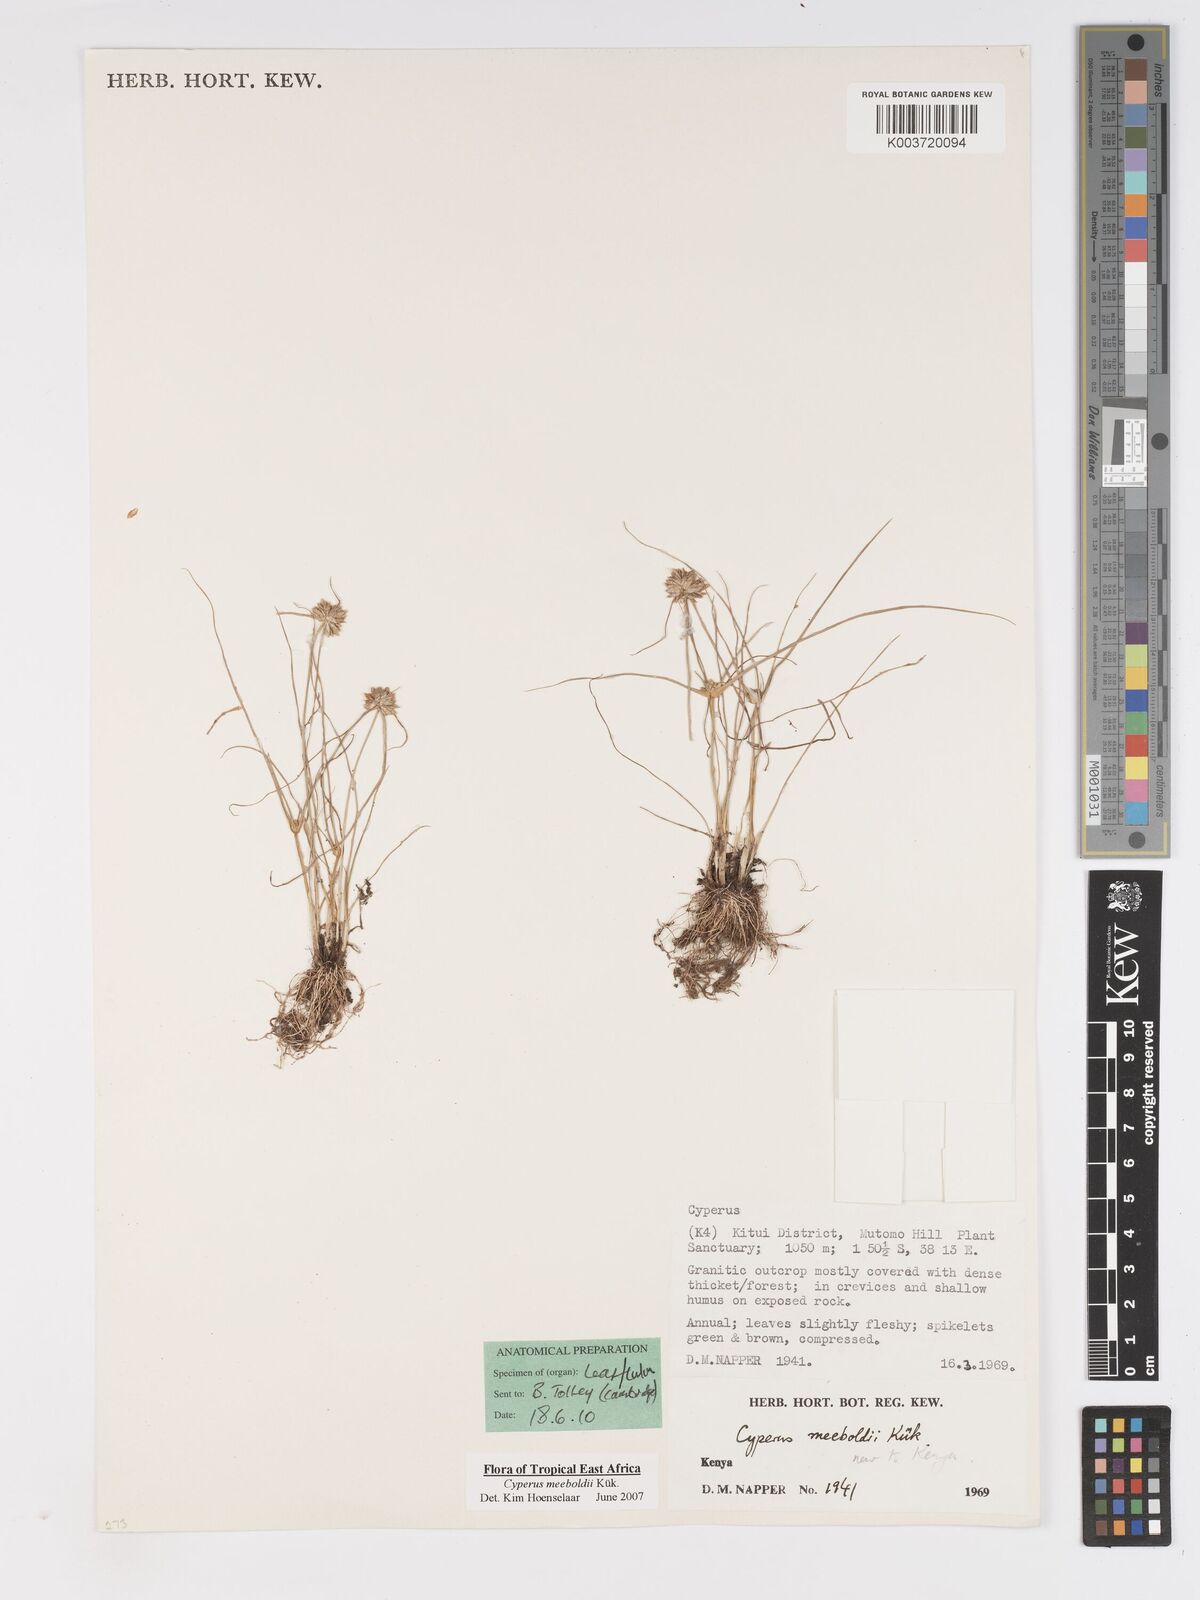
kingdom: Plantae
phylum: Tracheophyta
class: Liliopsida
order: Poales
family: Cyperaceae
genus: Cyperus
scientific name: Cyperus meeboldii
